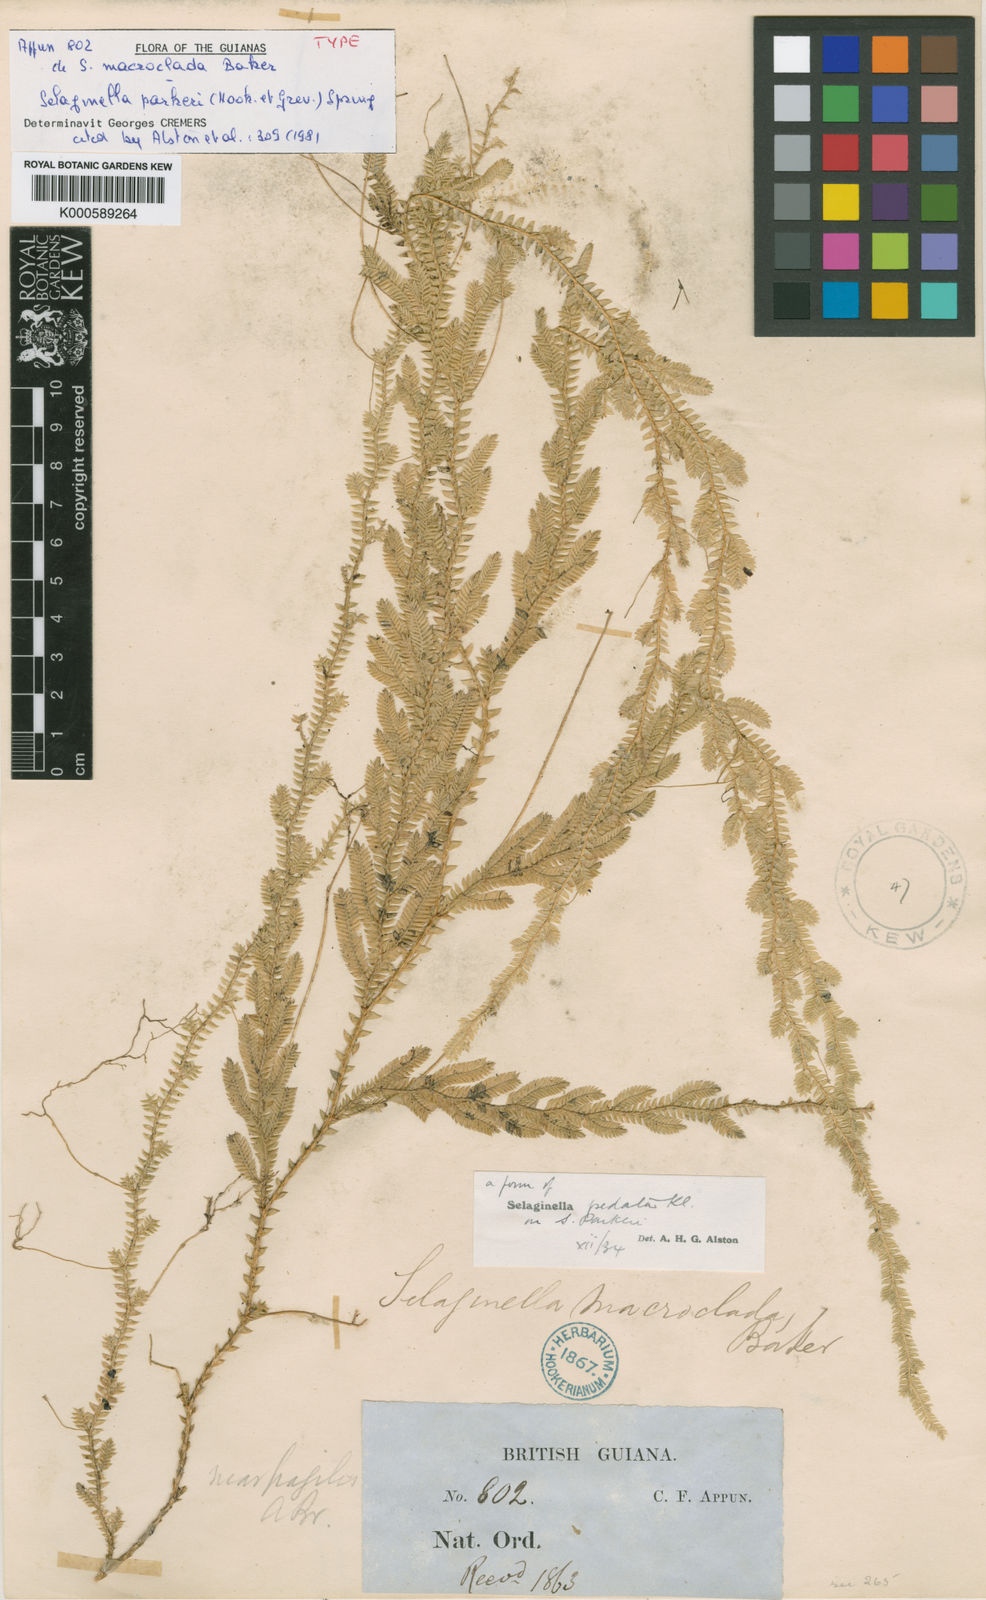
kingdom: Plantae
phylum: Tracheophyta
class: Lycopodiopsida
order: Selaginellales
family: Selaginellaceae
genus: Selaginella
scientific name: Selaginella parkeri
